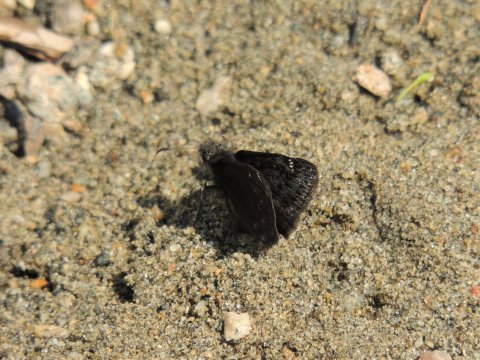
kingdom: Animalia
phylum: Arthropoda
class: Insecta
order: Lepidoptera
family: Hesperiidae
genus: Gesta
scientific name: Gesta
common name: Persius Duskywing
